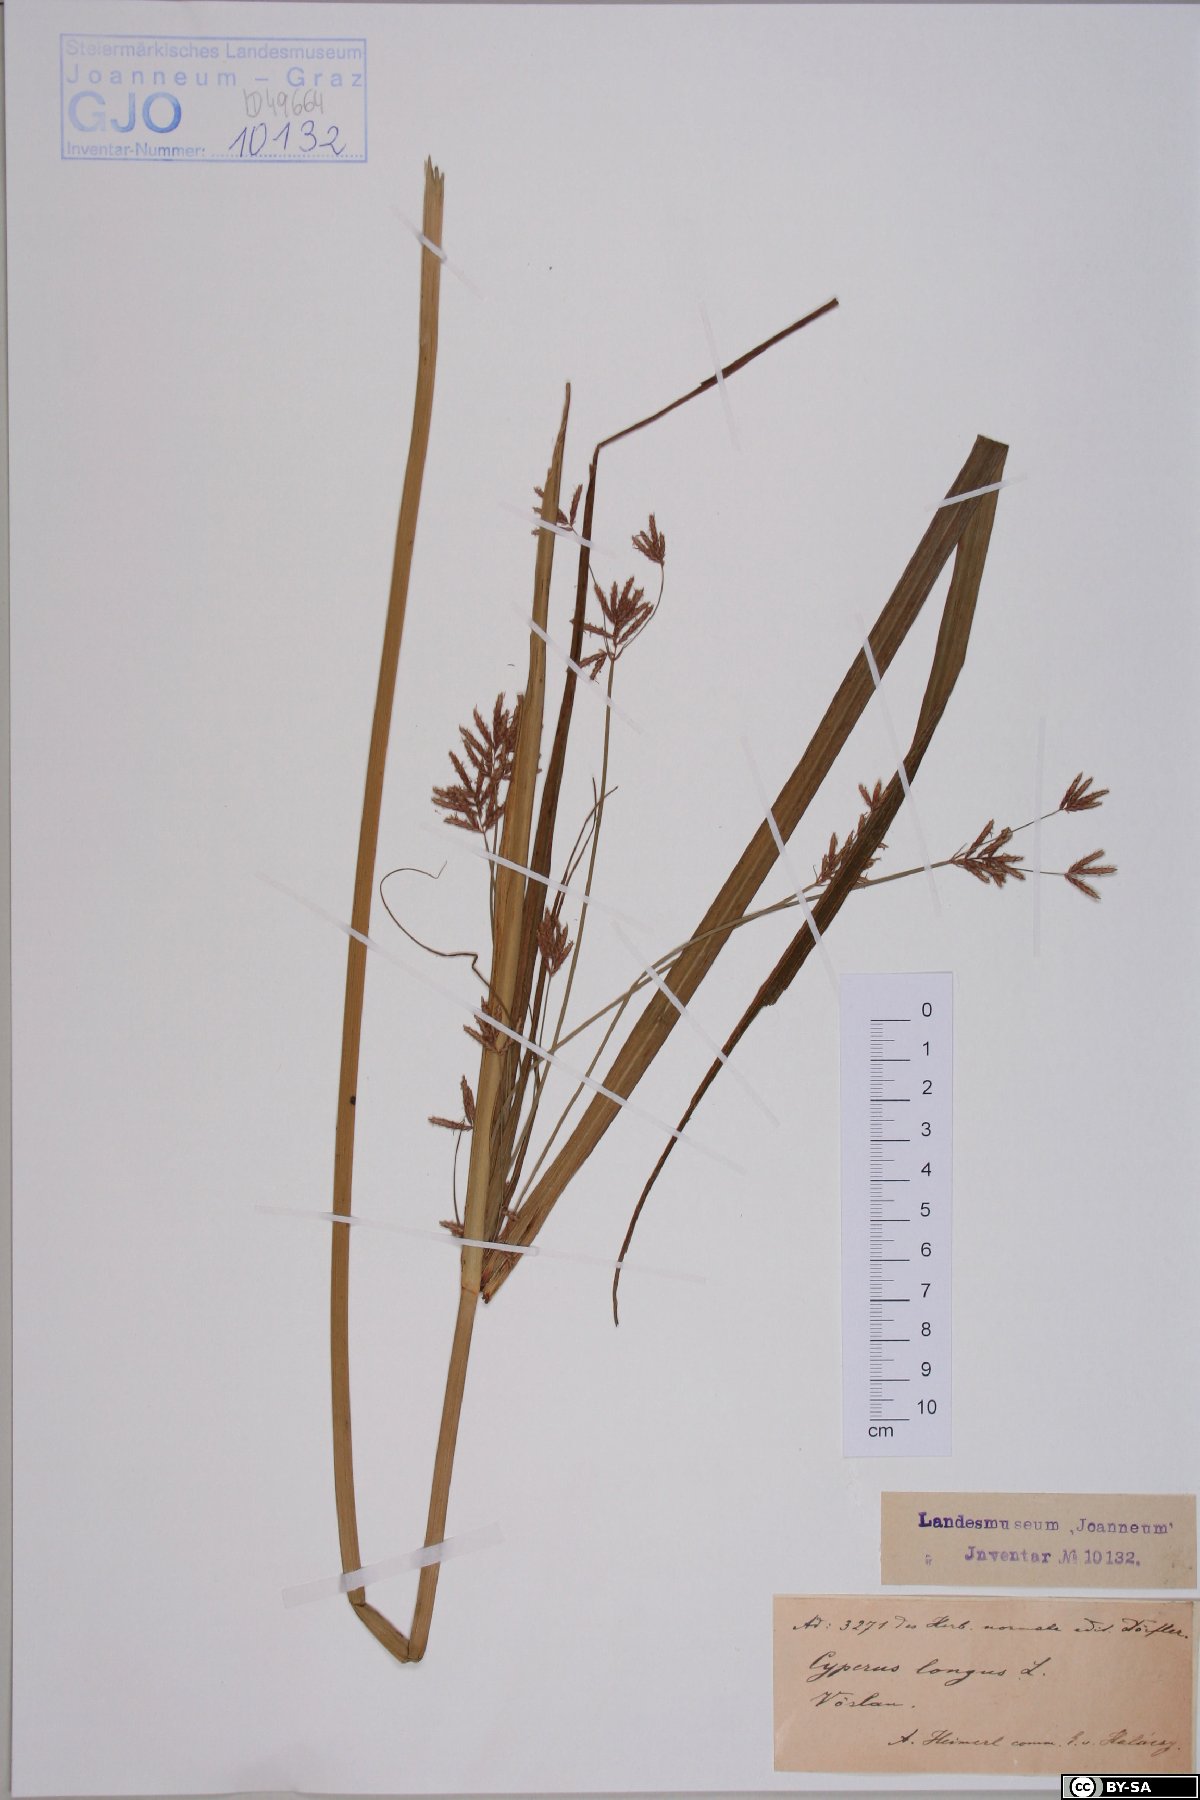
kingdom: Plantae
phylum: Tracheophyta
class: Liliopsida
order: Poales
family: Cyperaceae
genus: Cyperus
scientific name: Cyperus longus
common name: Galingale
